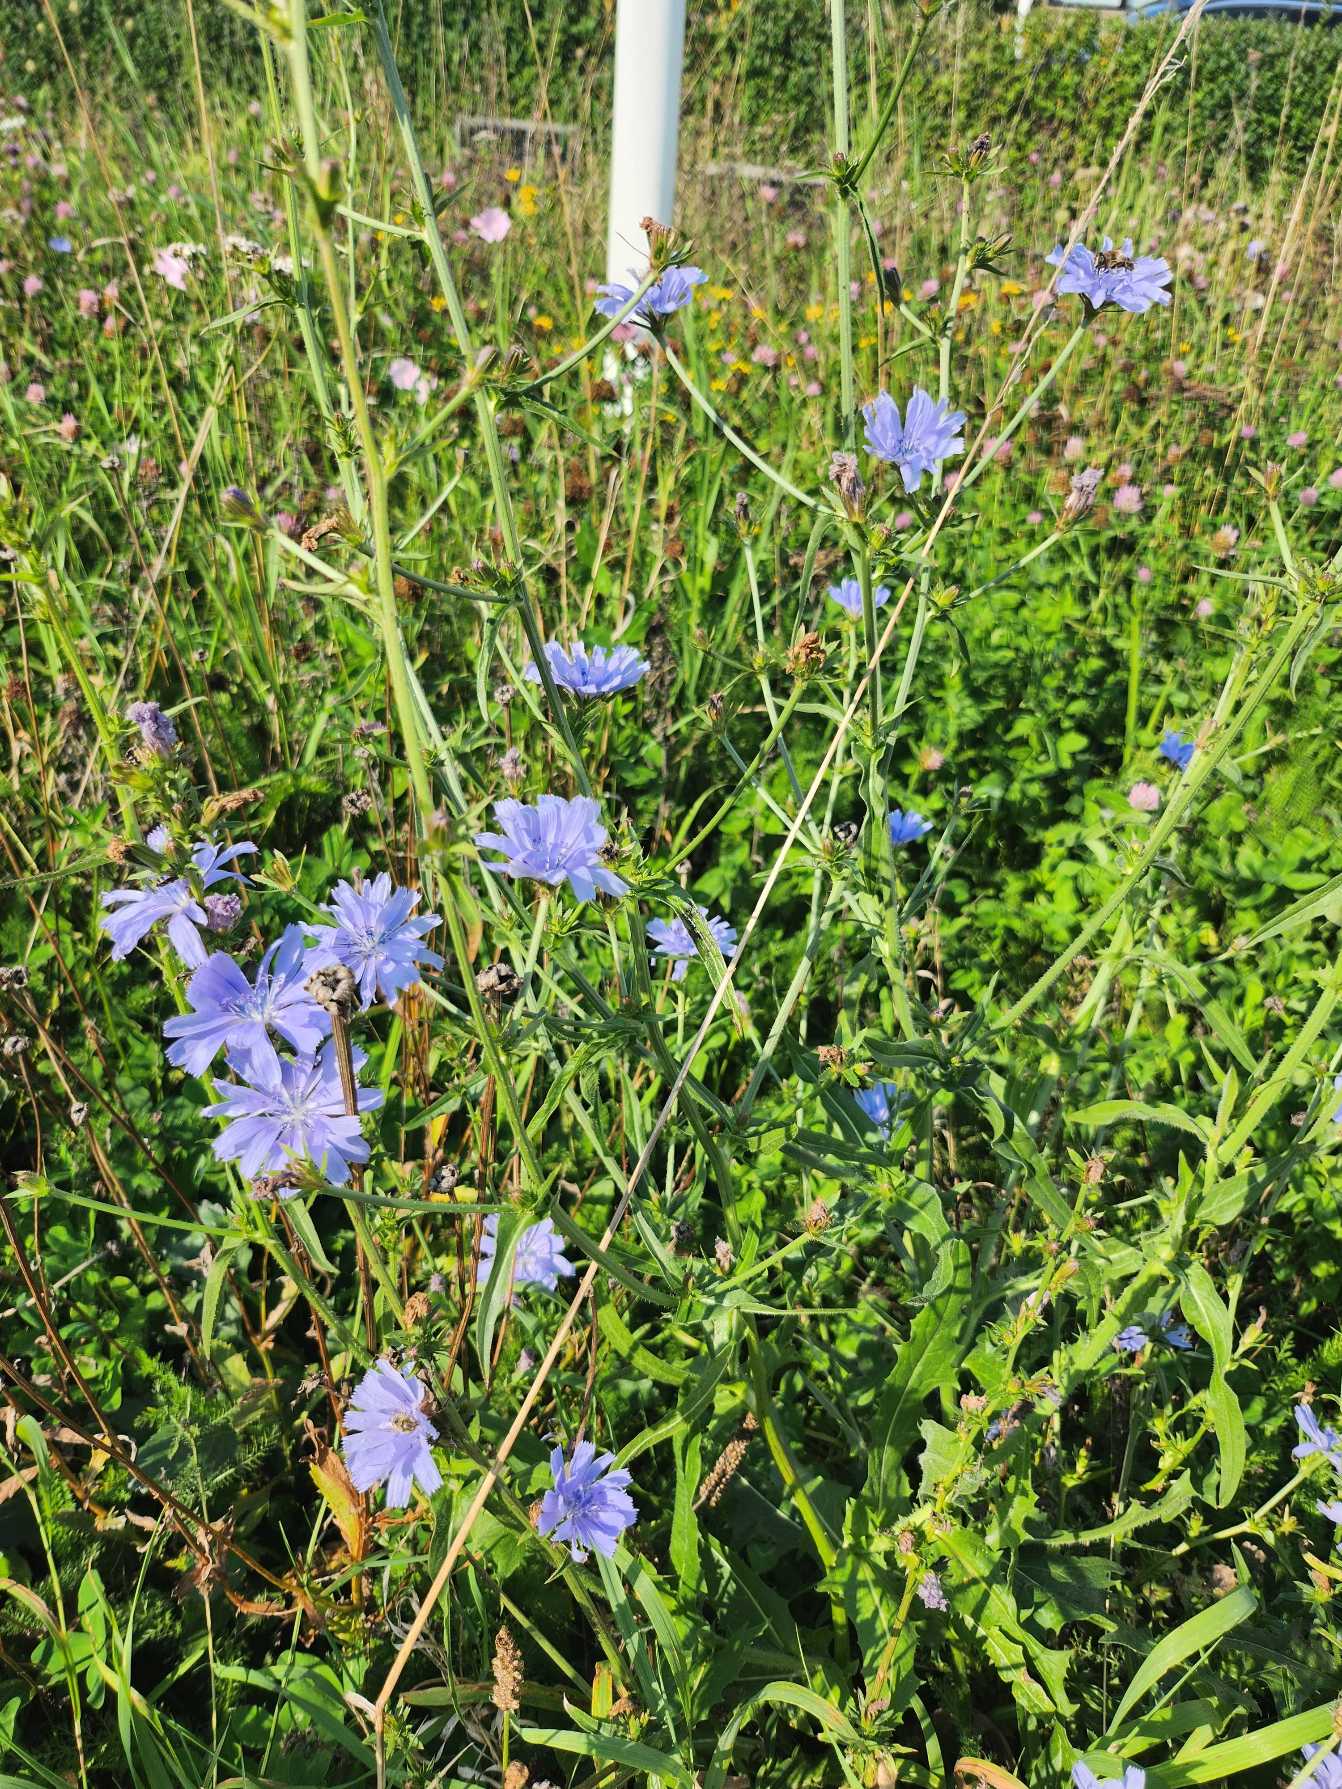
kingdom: Plantae
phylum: Tracheophyta
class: Magnoliopsida
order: Asterales
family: Asteraceae
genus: Cichorium
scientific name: Cichorium intybus
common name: Cikorie
